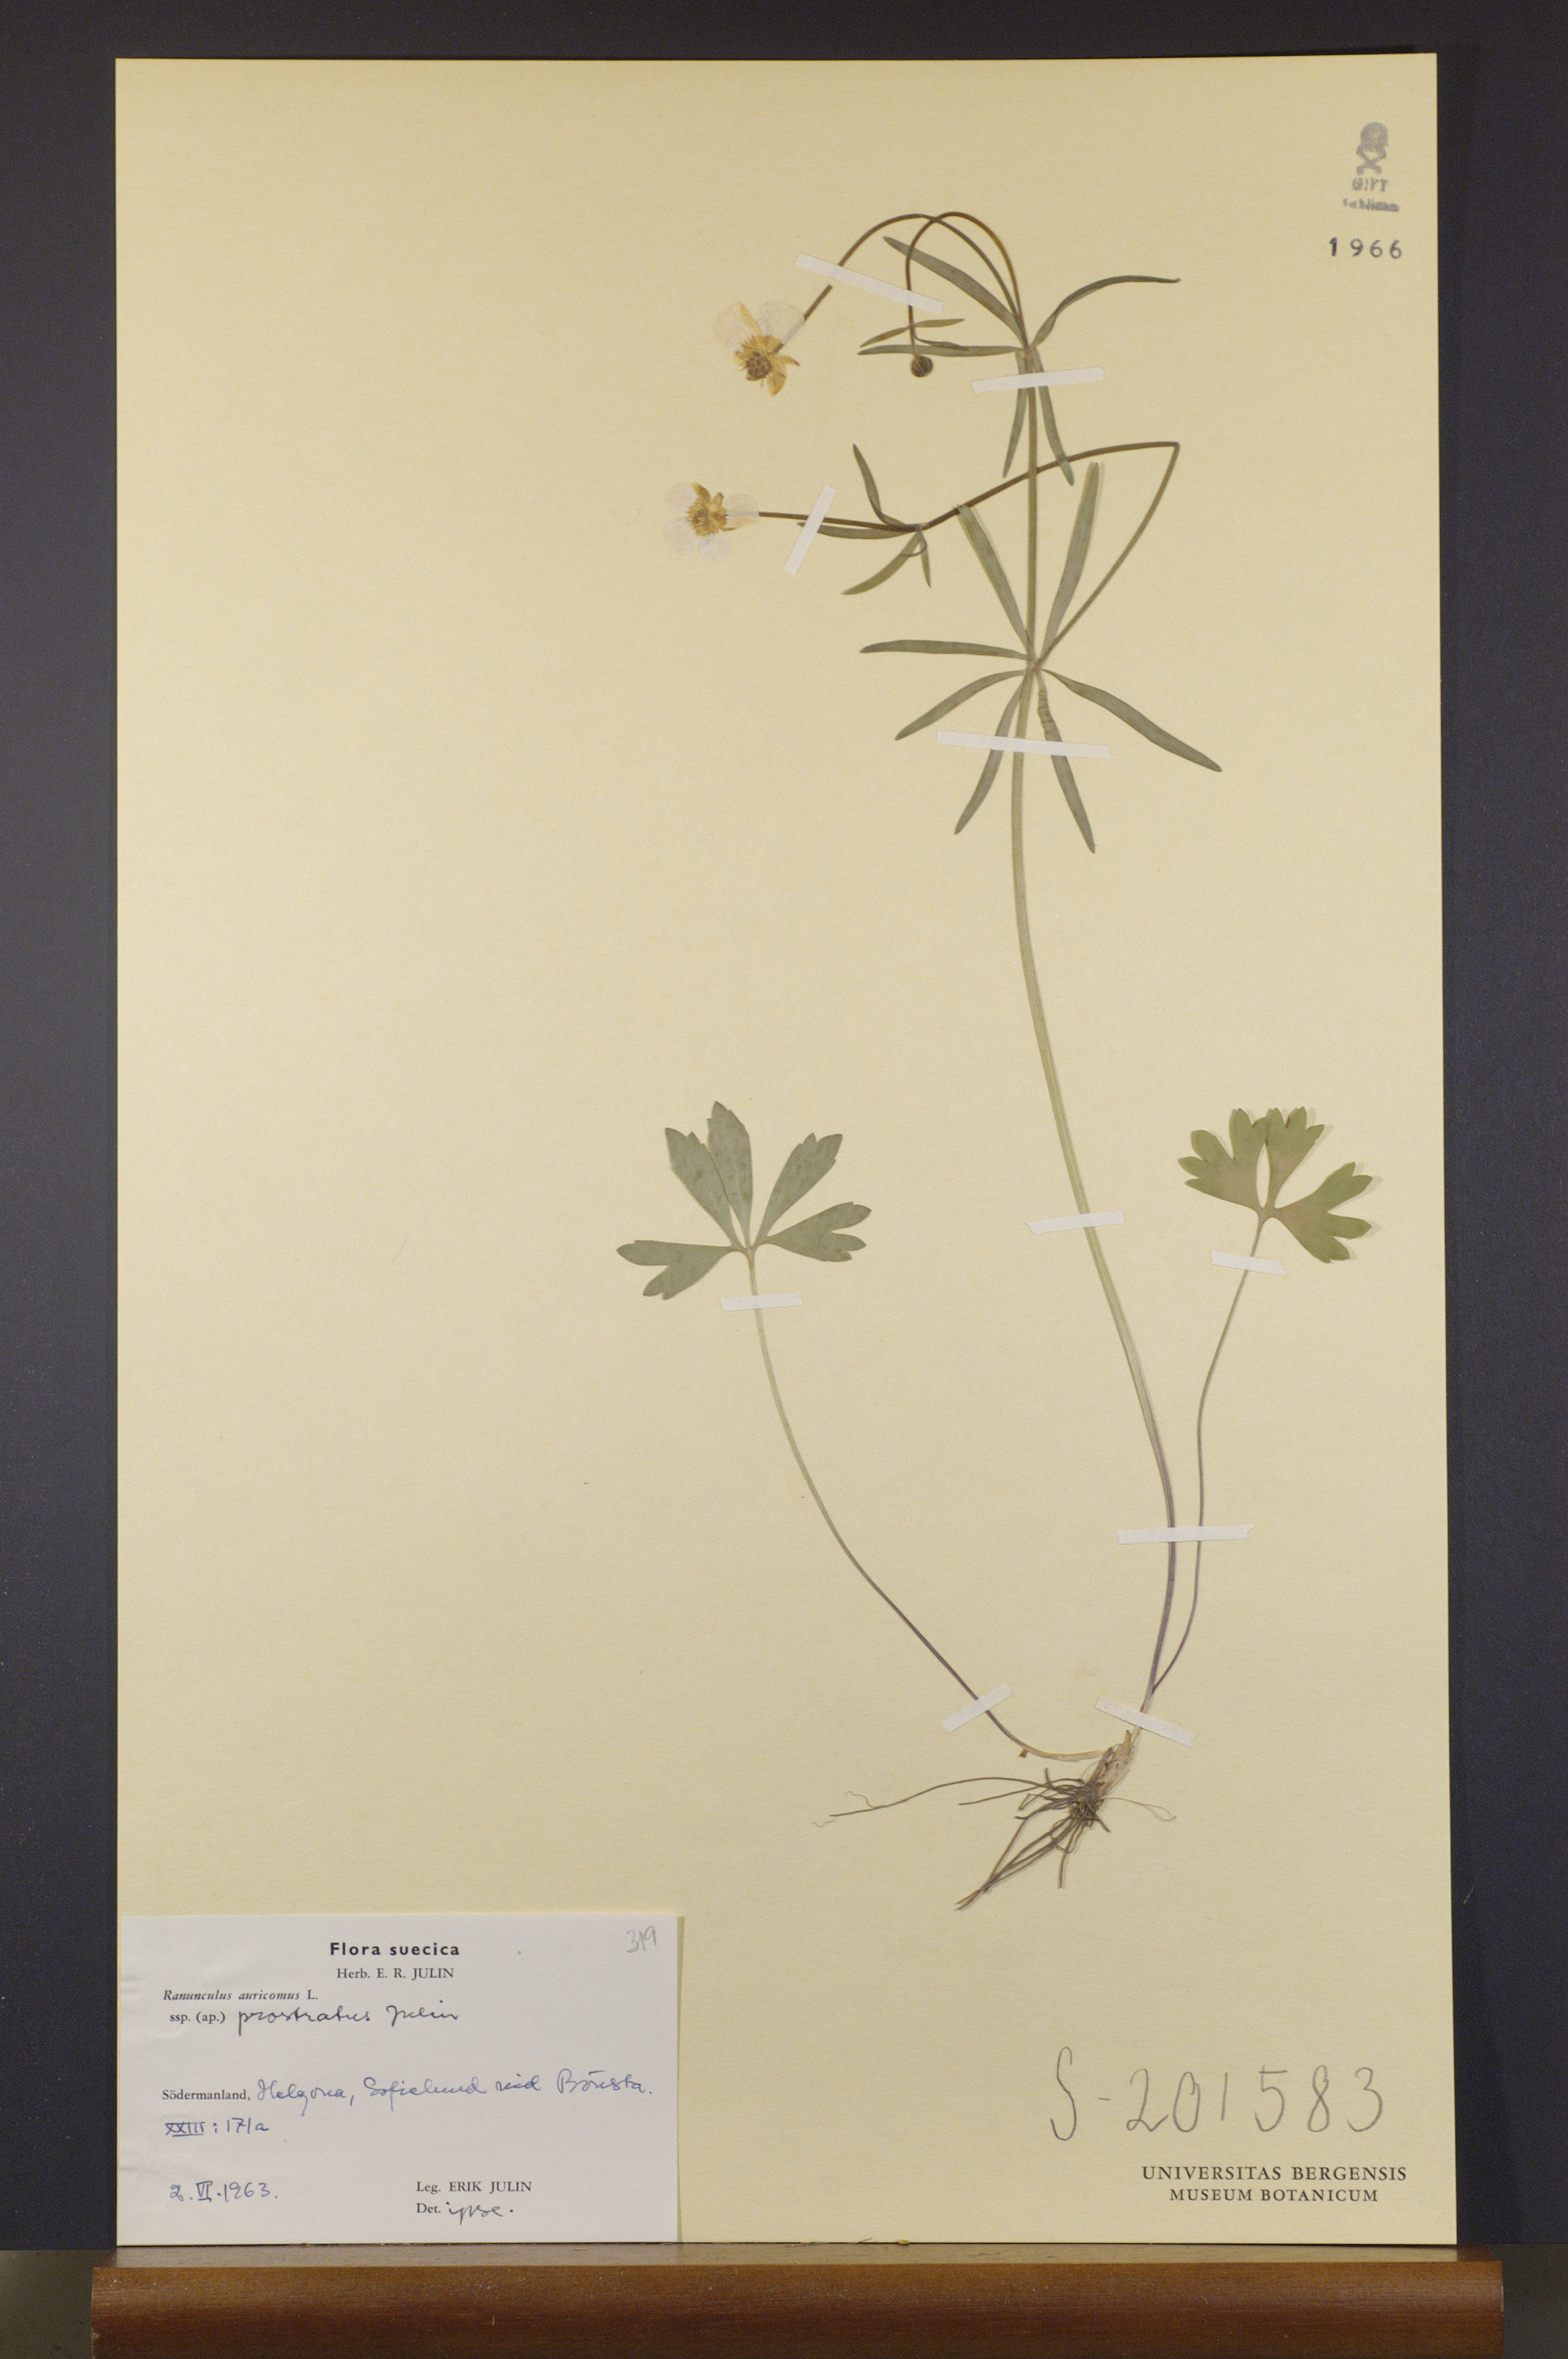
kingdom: Plantae
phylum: Tracheophyta
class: Magnoliopsida
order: Ranunculales
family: Ranunculaceae
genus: Ranunculus
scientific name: Ranunculus sudermannicus
